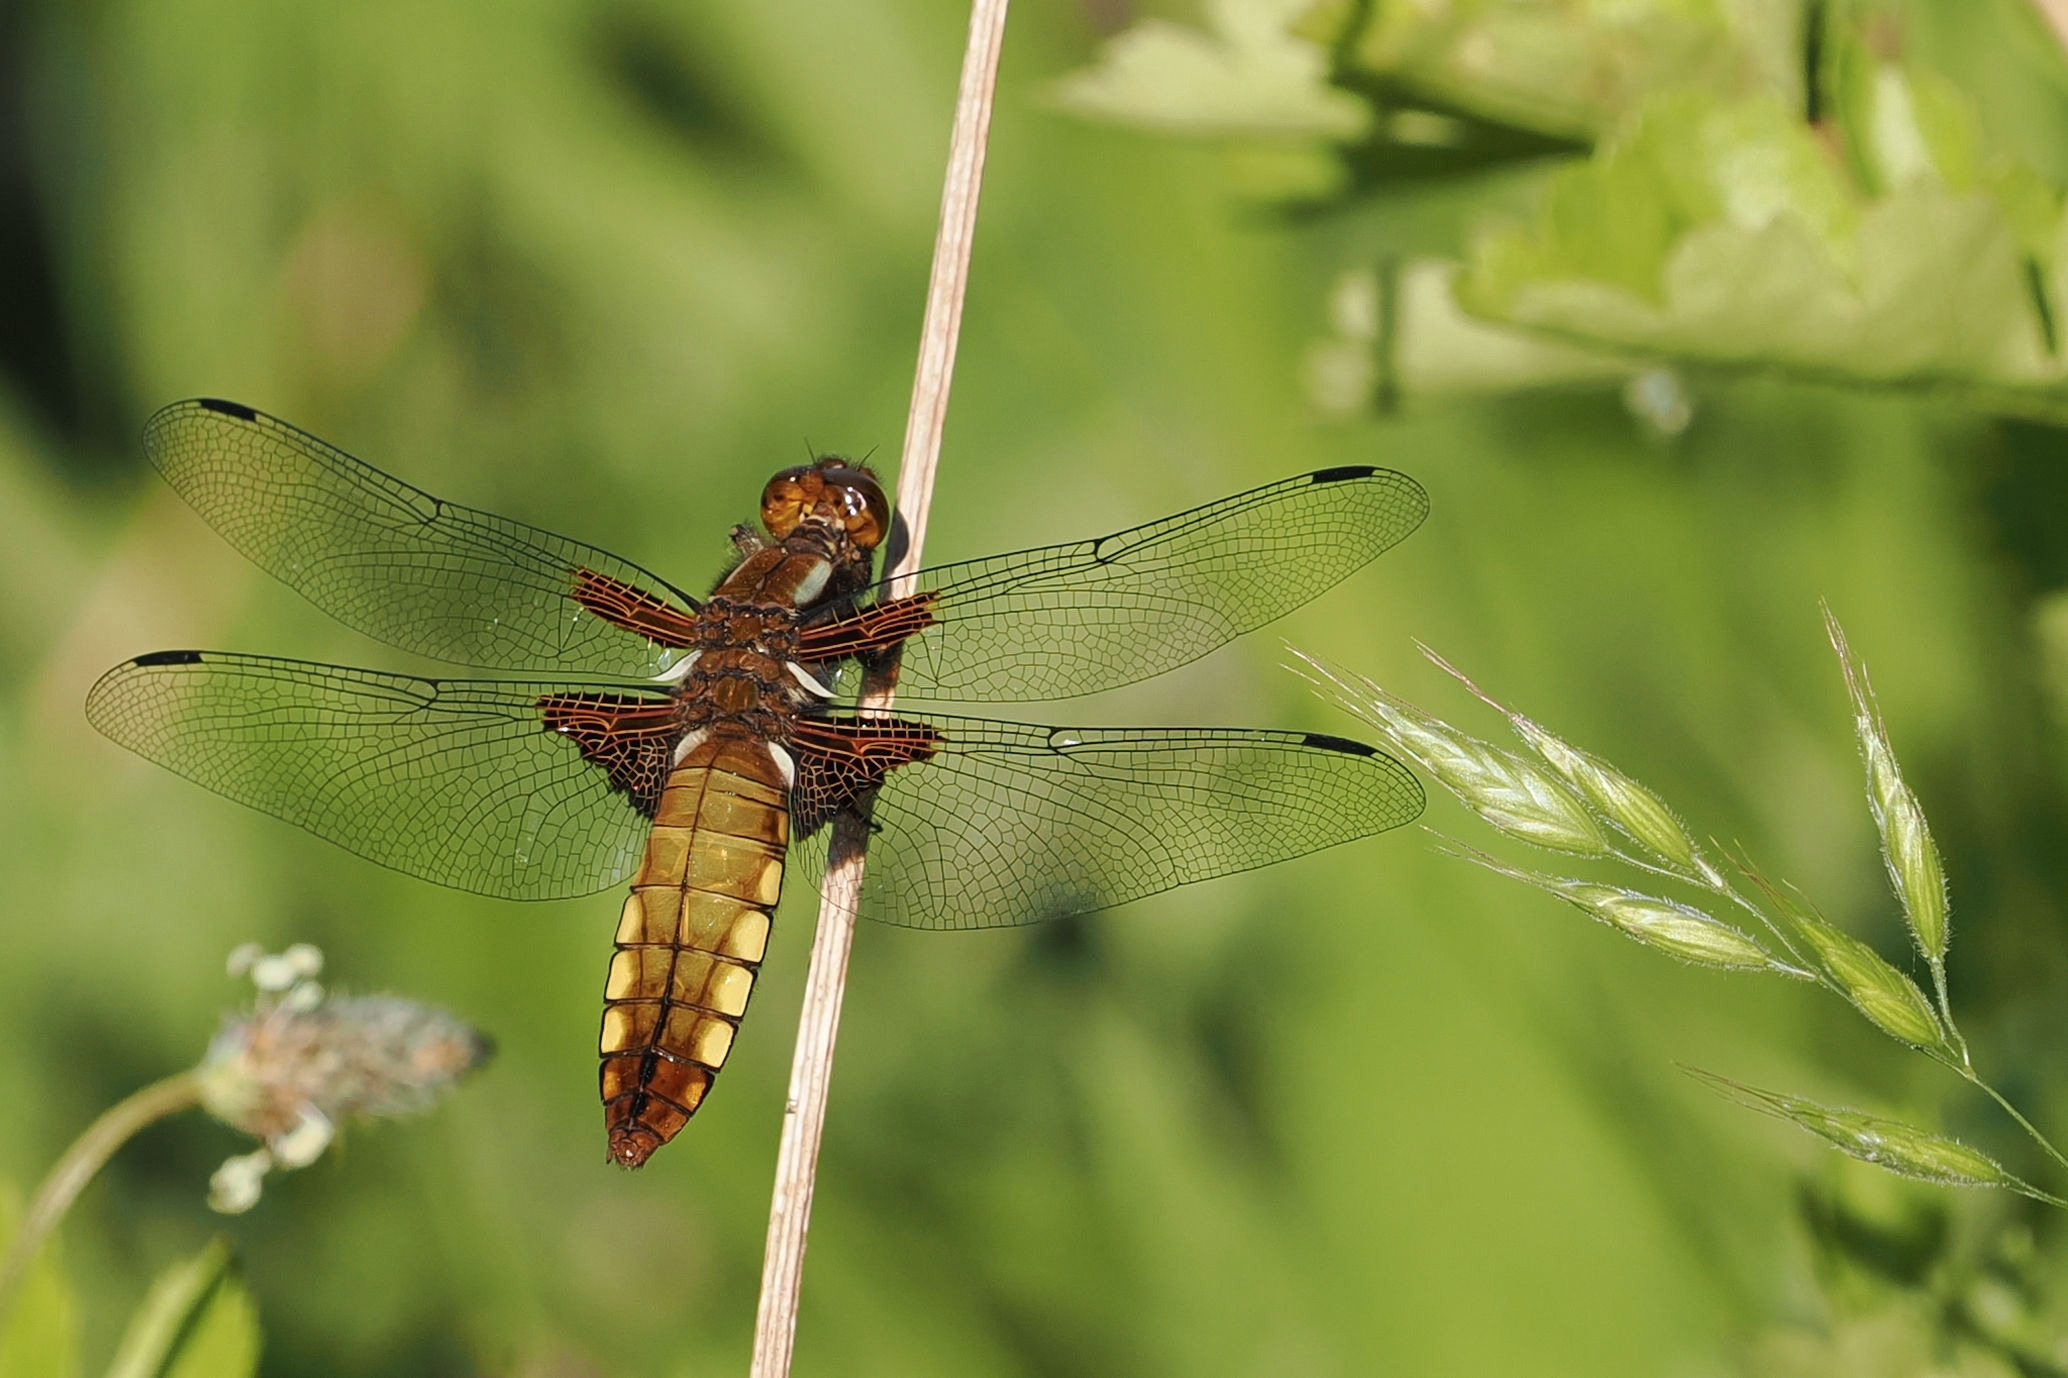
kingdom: Animalia
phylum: Arthropoda
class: Insecta
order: Odonata
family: Libellulidae
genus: Libellula
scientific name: Libellula depressa
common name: Blå libel
